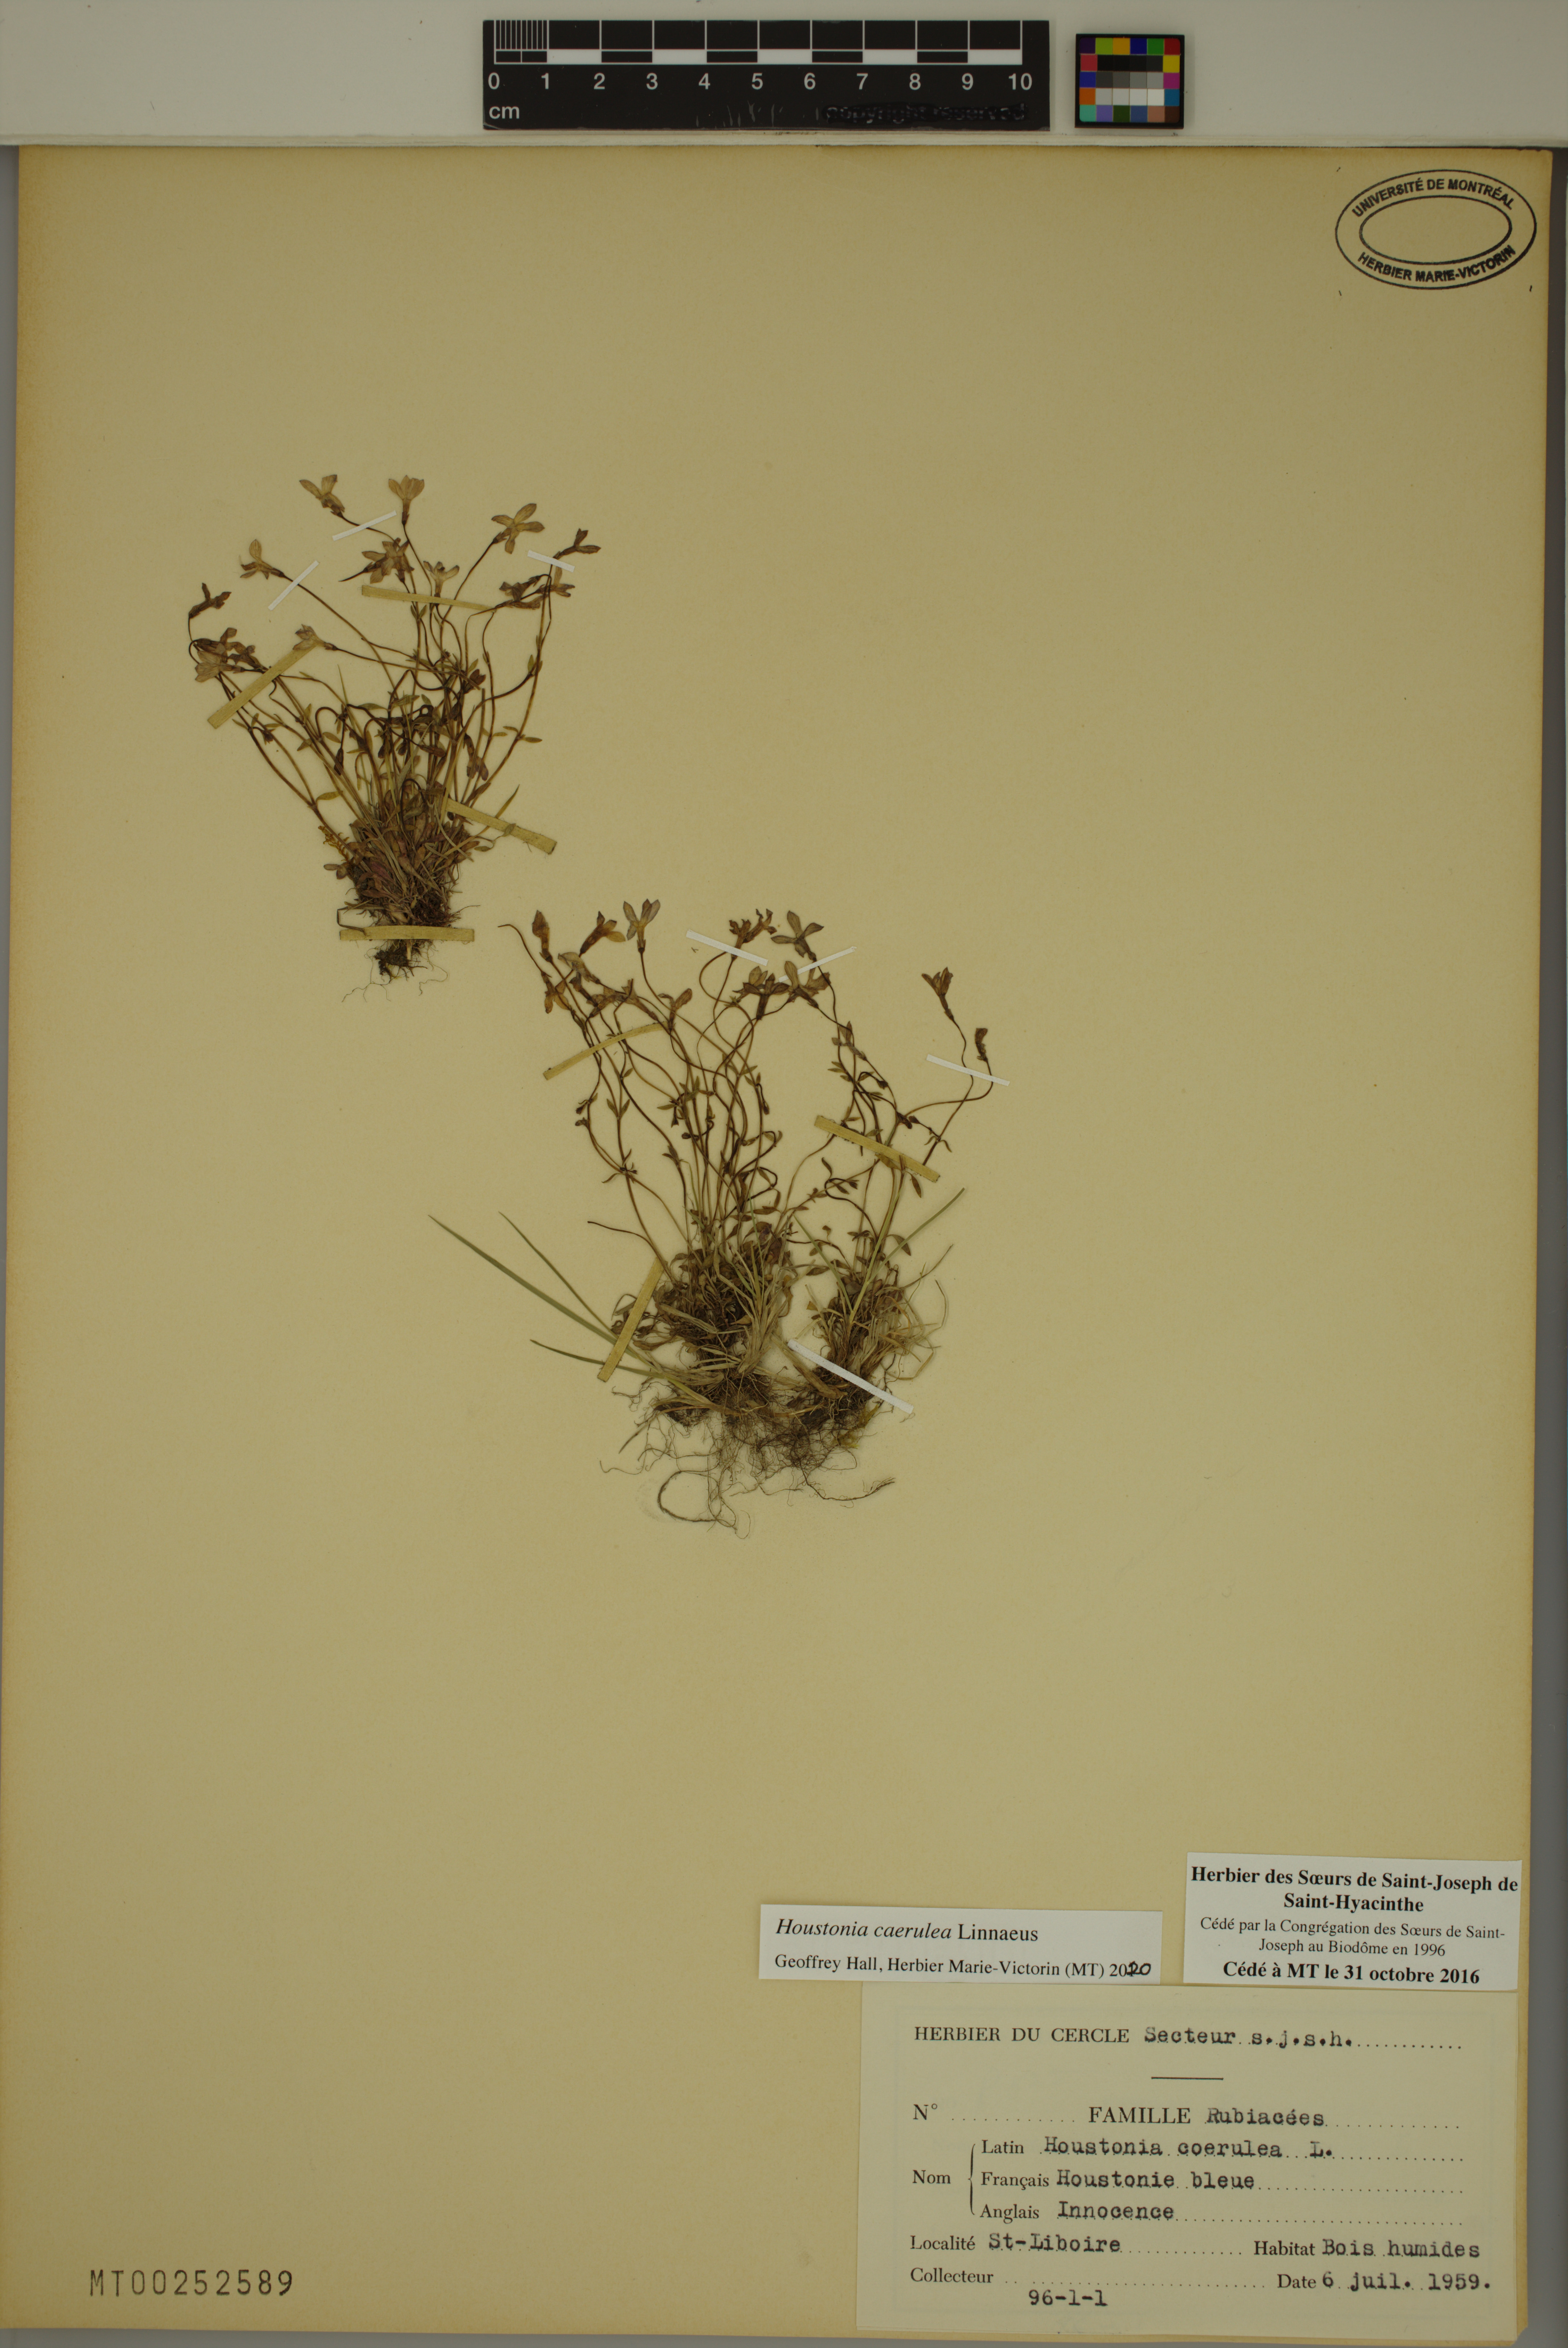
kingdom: Plantae
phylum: Tracheophyta
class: Magnoliopsida
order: Gentianales
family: Rubiaceae
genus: Houstonia
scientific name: Houstonia caerulea
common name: Bluets
